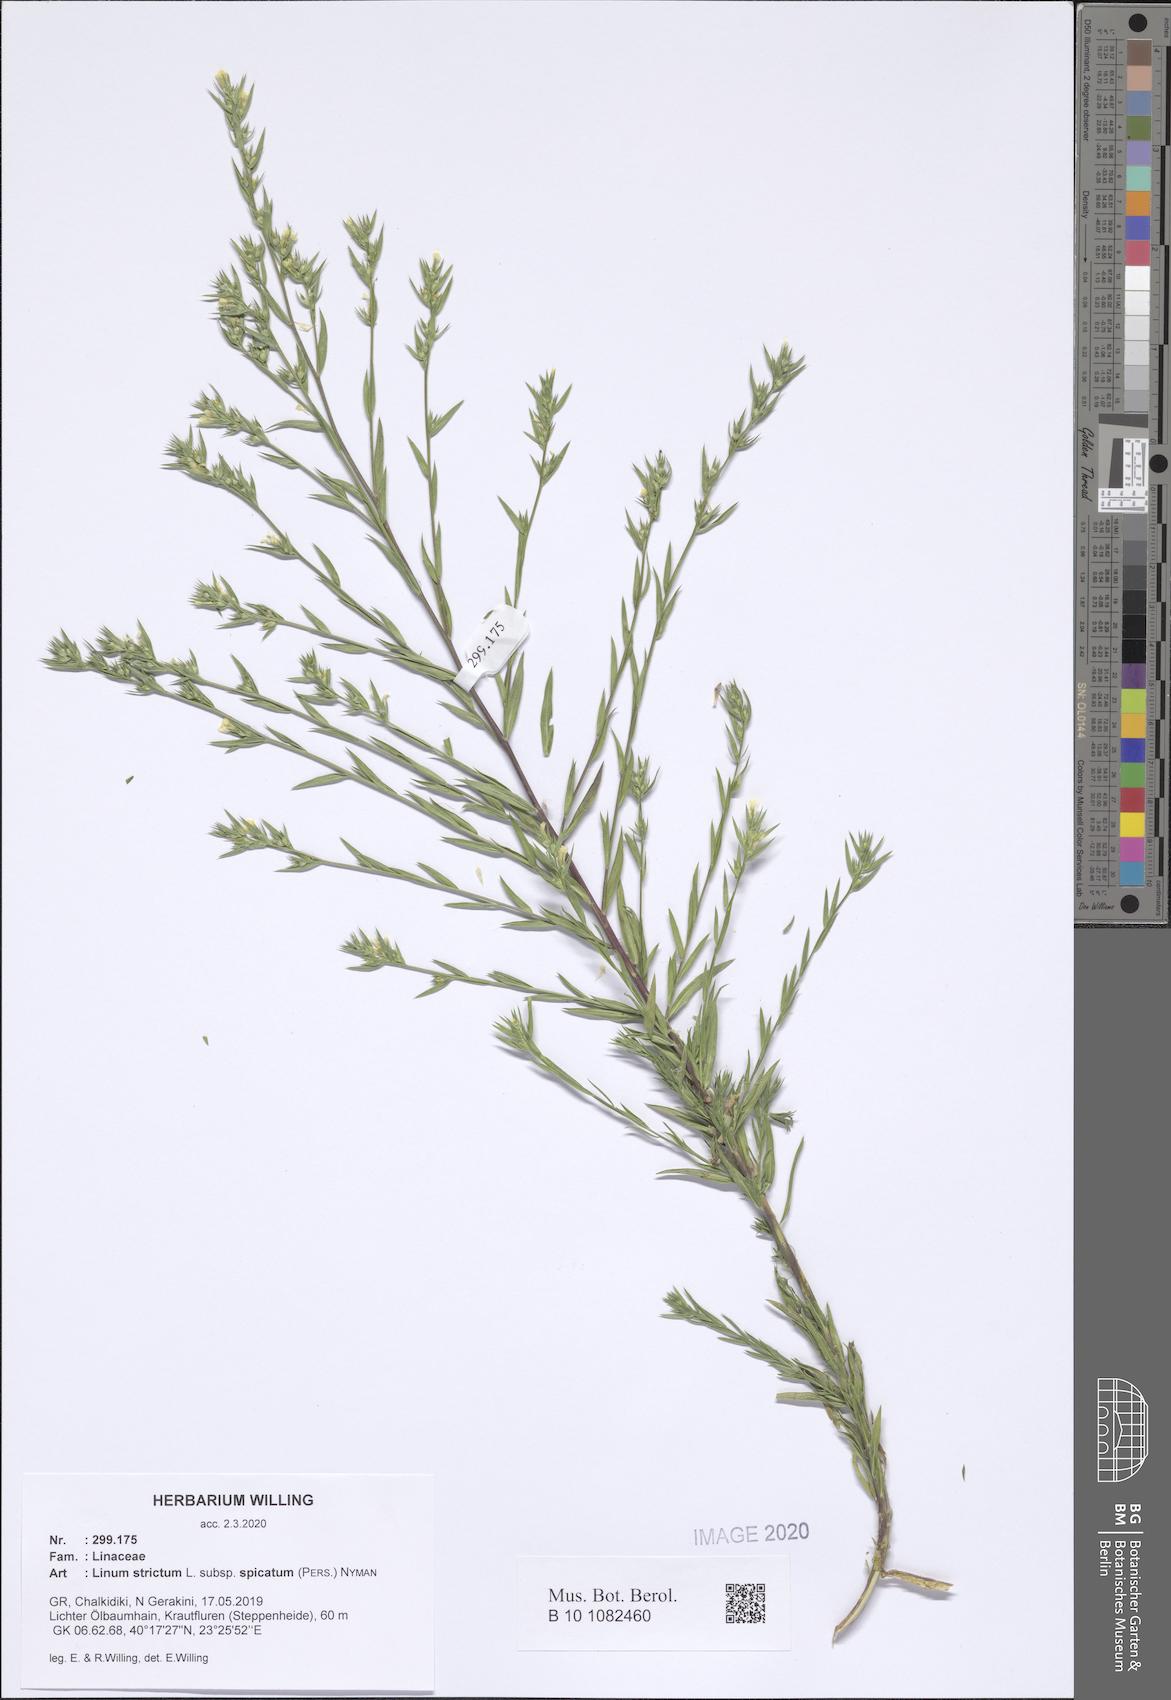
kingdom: Plantae
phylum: Tracheophyta
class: Magnoliopsida
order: Malpighiales
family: Linaceae
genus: Linum
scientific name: Linum strictum
